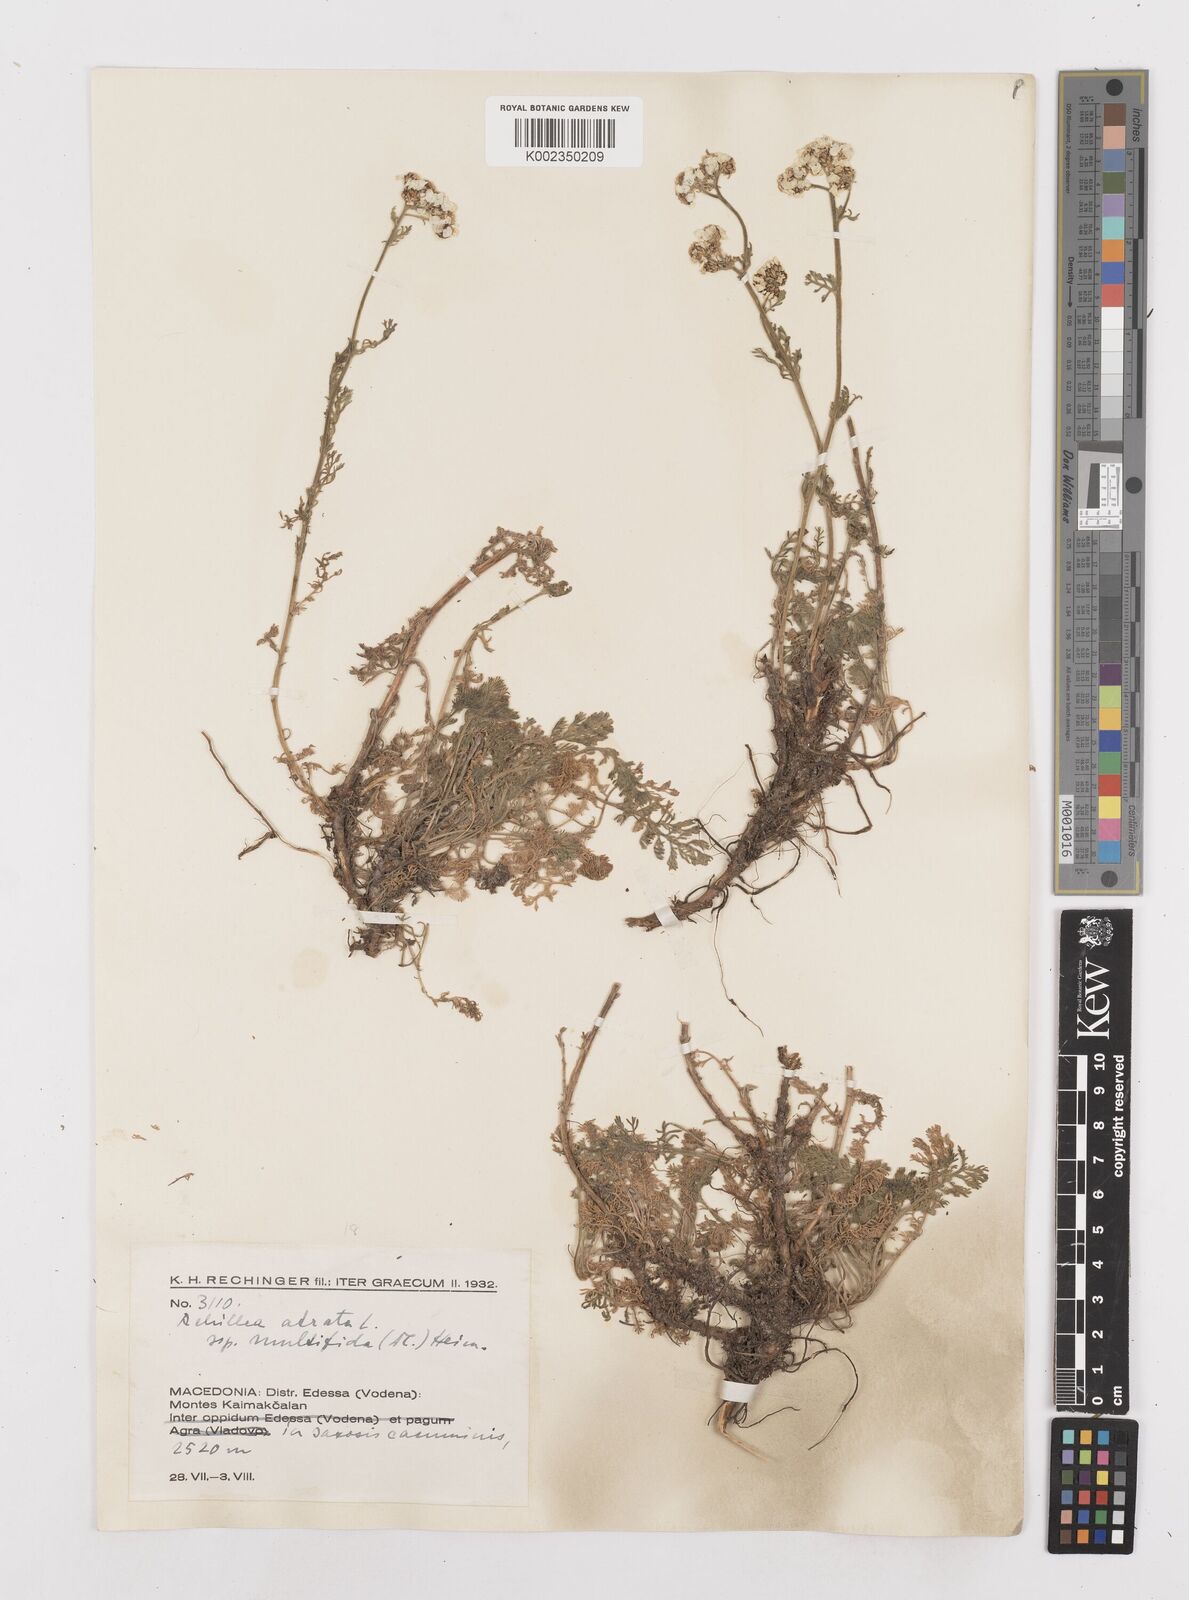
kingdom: Plantae
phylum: Tracheophyta
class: Magnoliopsida
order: Asterales
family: Asteraceae
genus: Achillea
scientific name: Achillea clusiana
